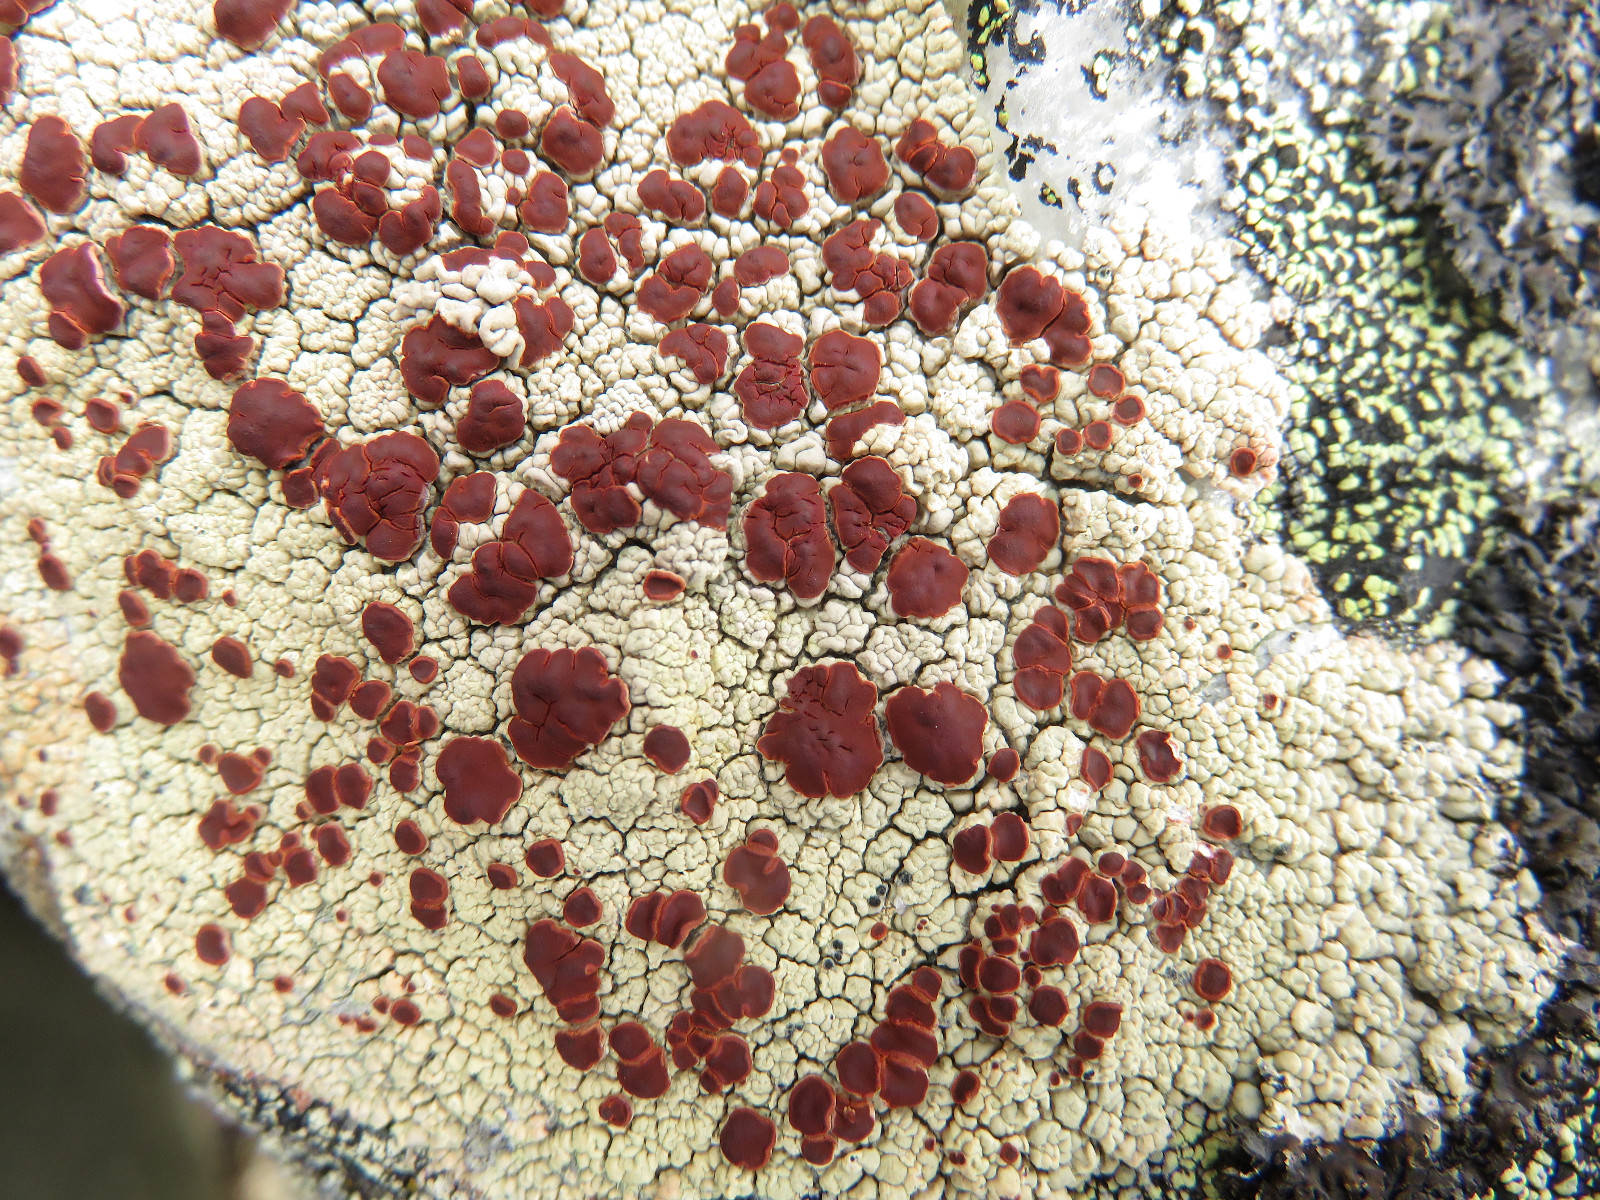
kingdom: Fungi
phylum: Ascomycota
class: Lecanoromycetes
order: Umbilicariales
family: Ophioparmaceae
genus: Ophioparma
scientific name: Ophioparma ventosa
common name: fjeld-blodøjelav
